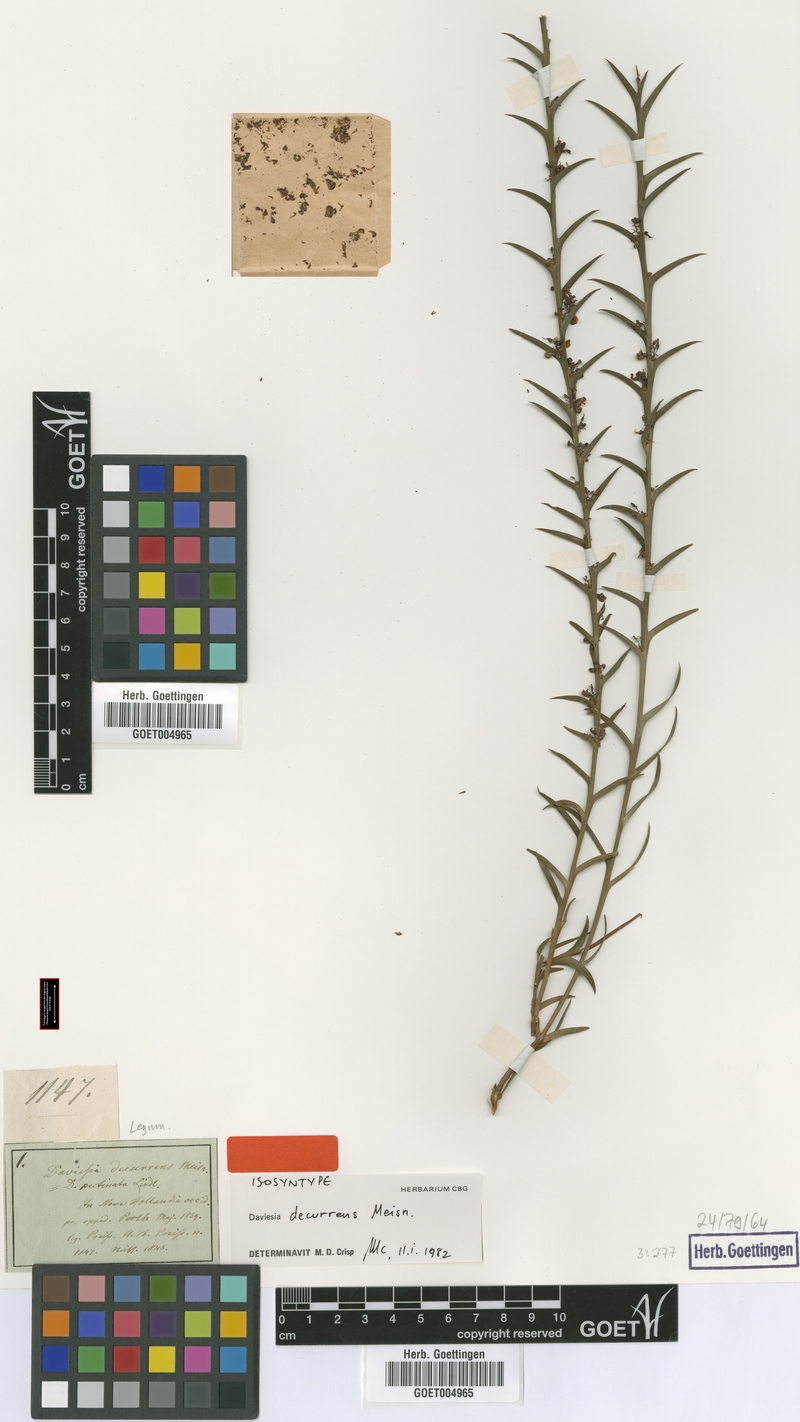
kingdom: Plantae
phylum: Tracheophyta
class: Magnoliopsida
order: Fabales
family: Fabaceae
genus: Daviesia
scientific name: Daviesia decurrens
